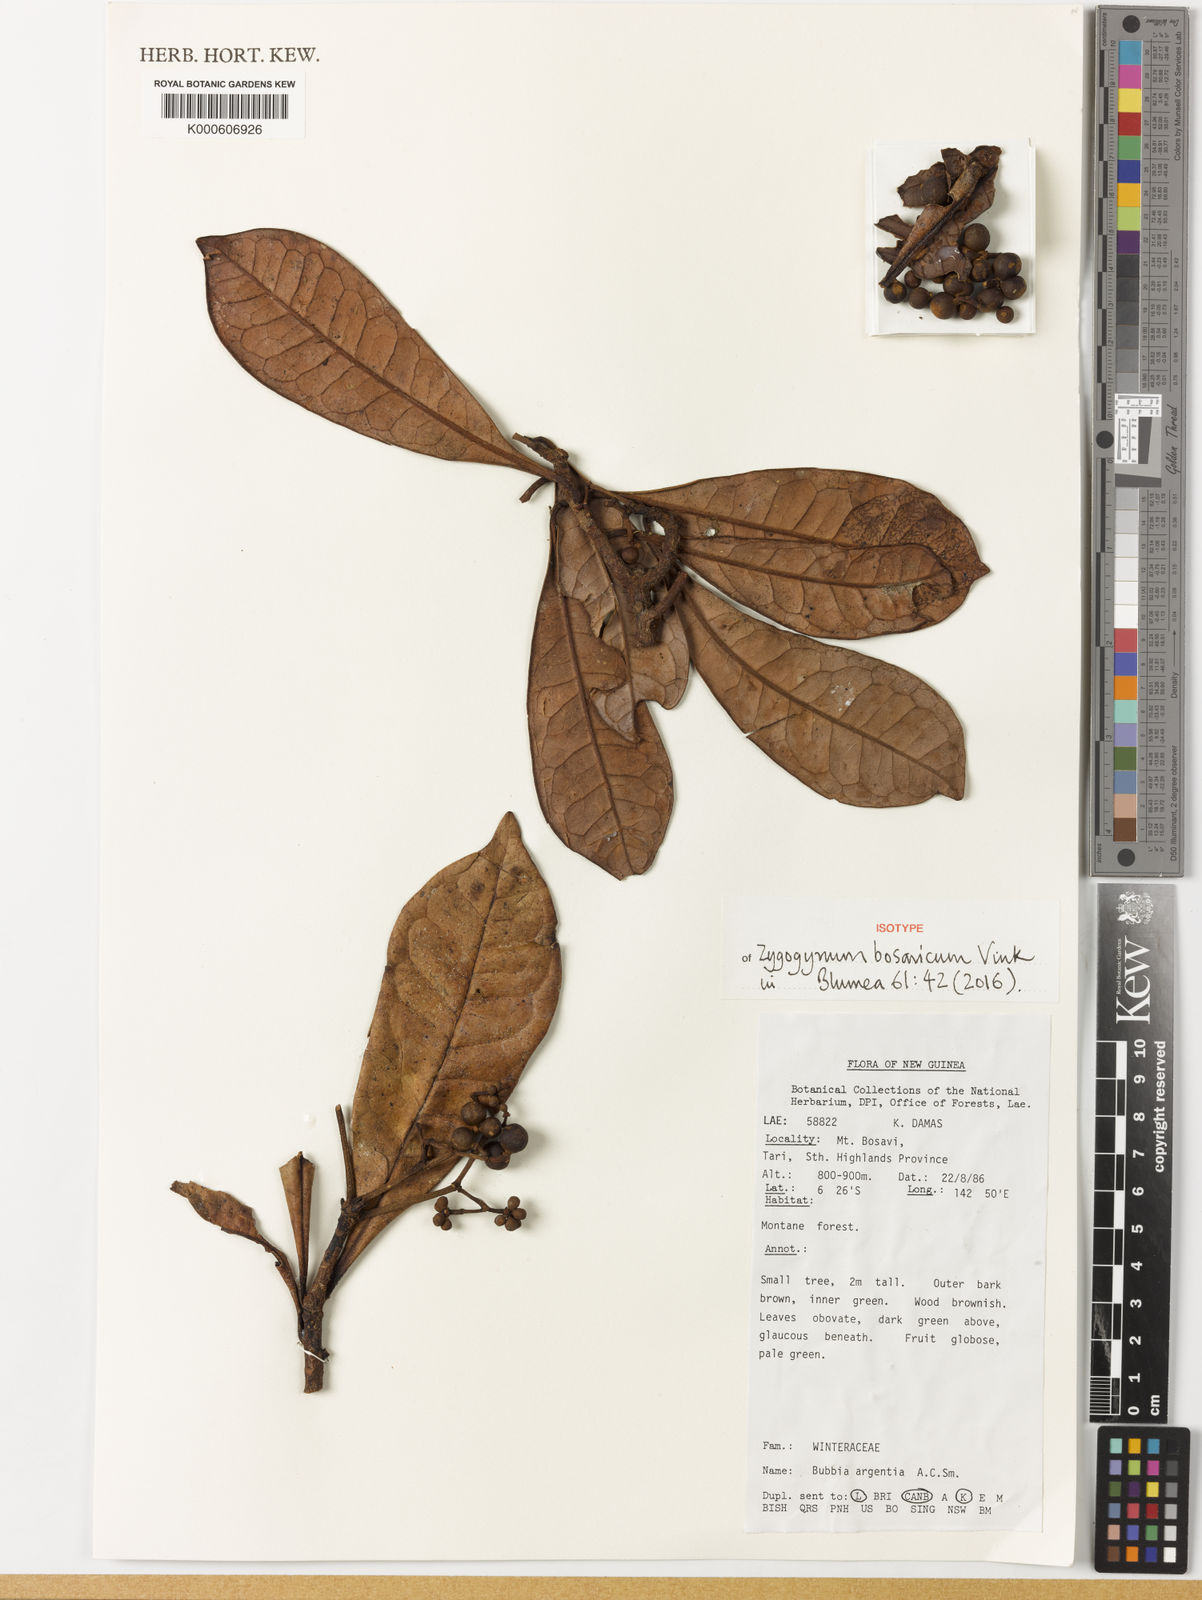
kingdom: Plantae
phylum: Tracheophyta
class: Magnoliopsida
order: Canellales
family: Winteraceae
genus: Zygogynum
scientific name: Zygogynum bosavicum
